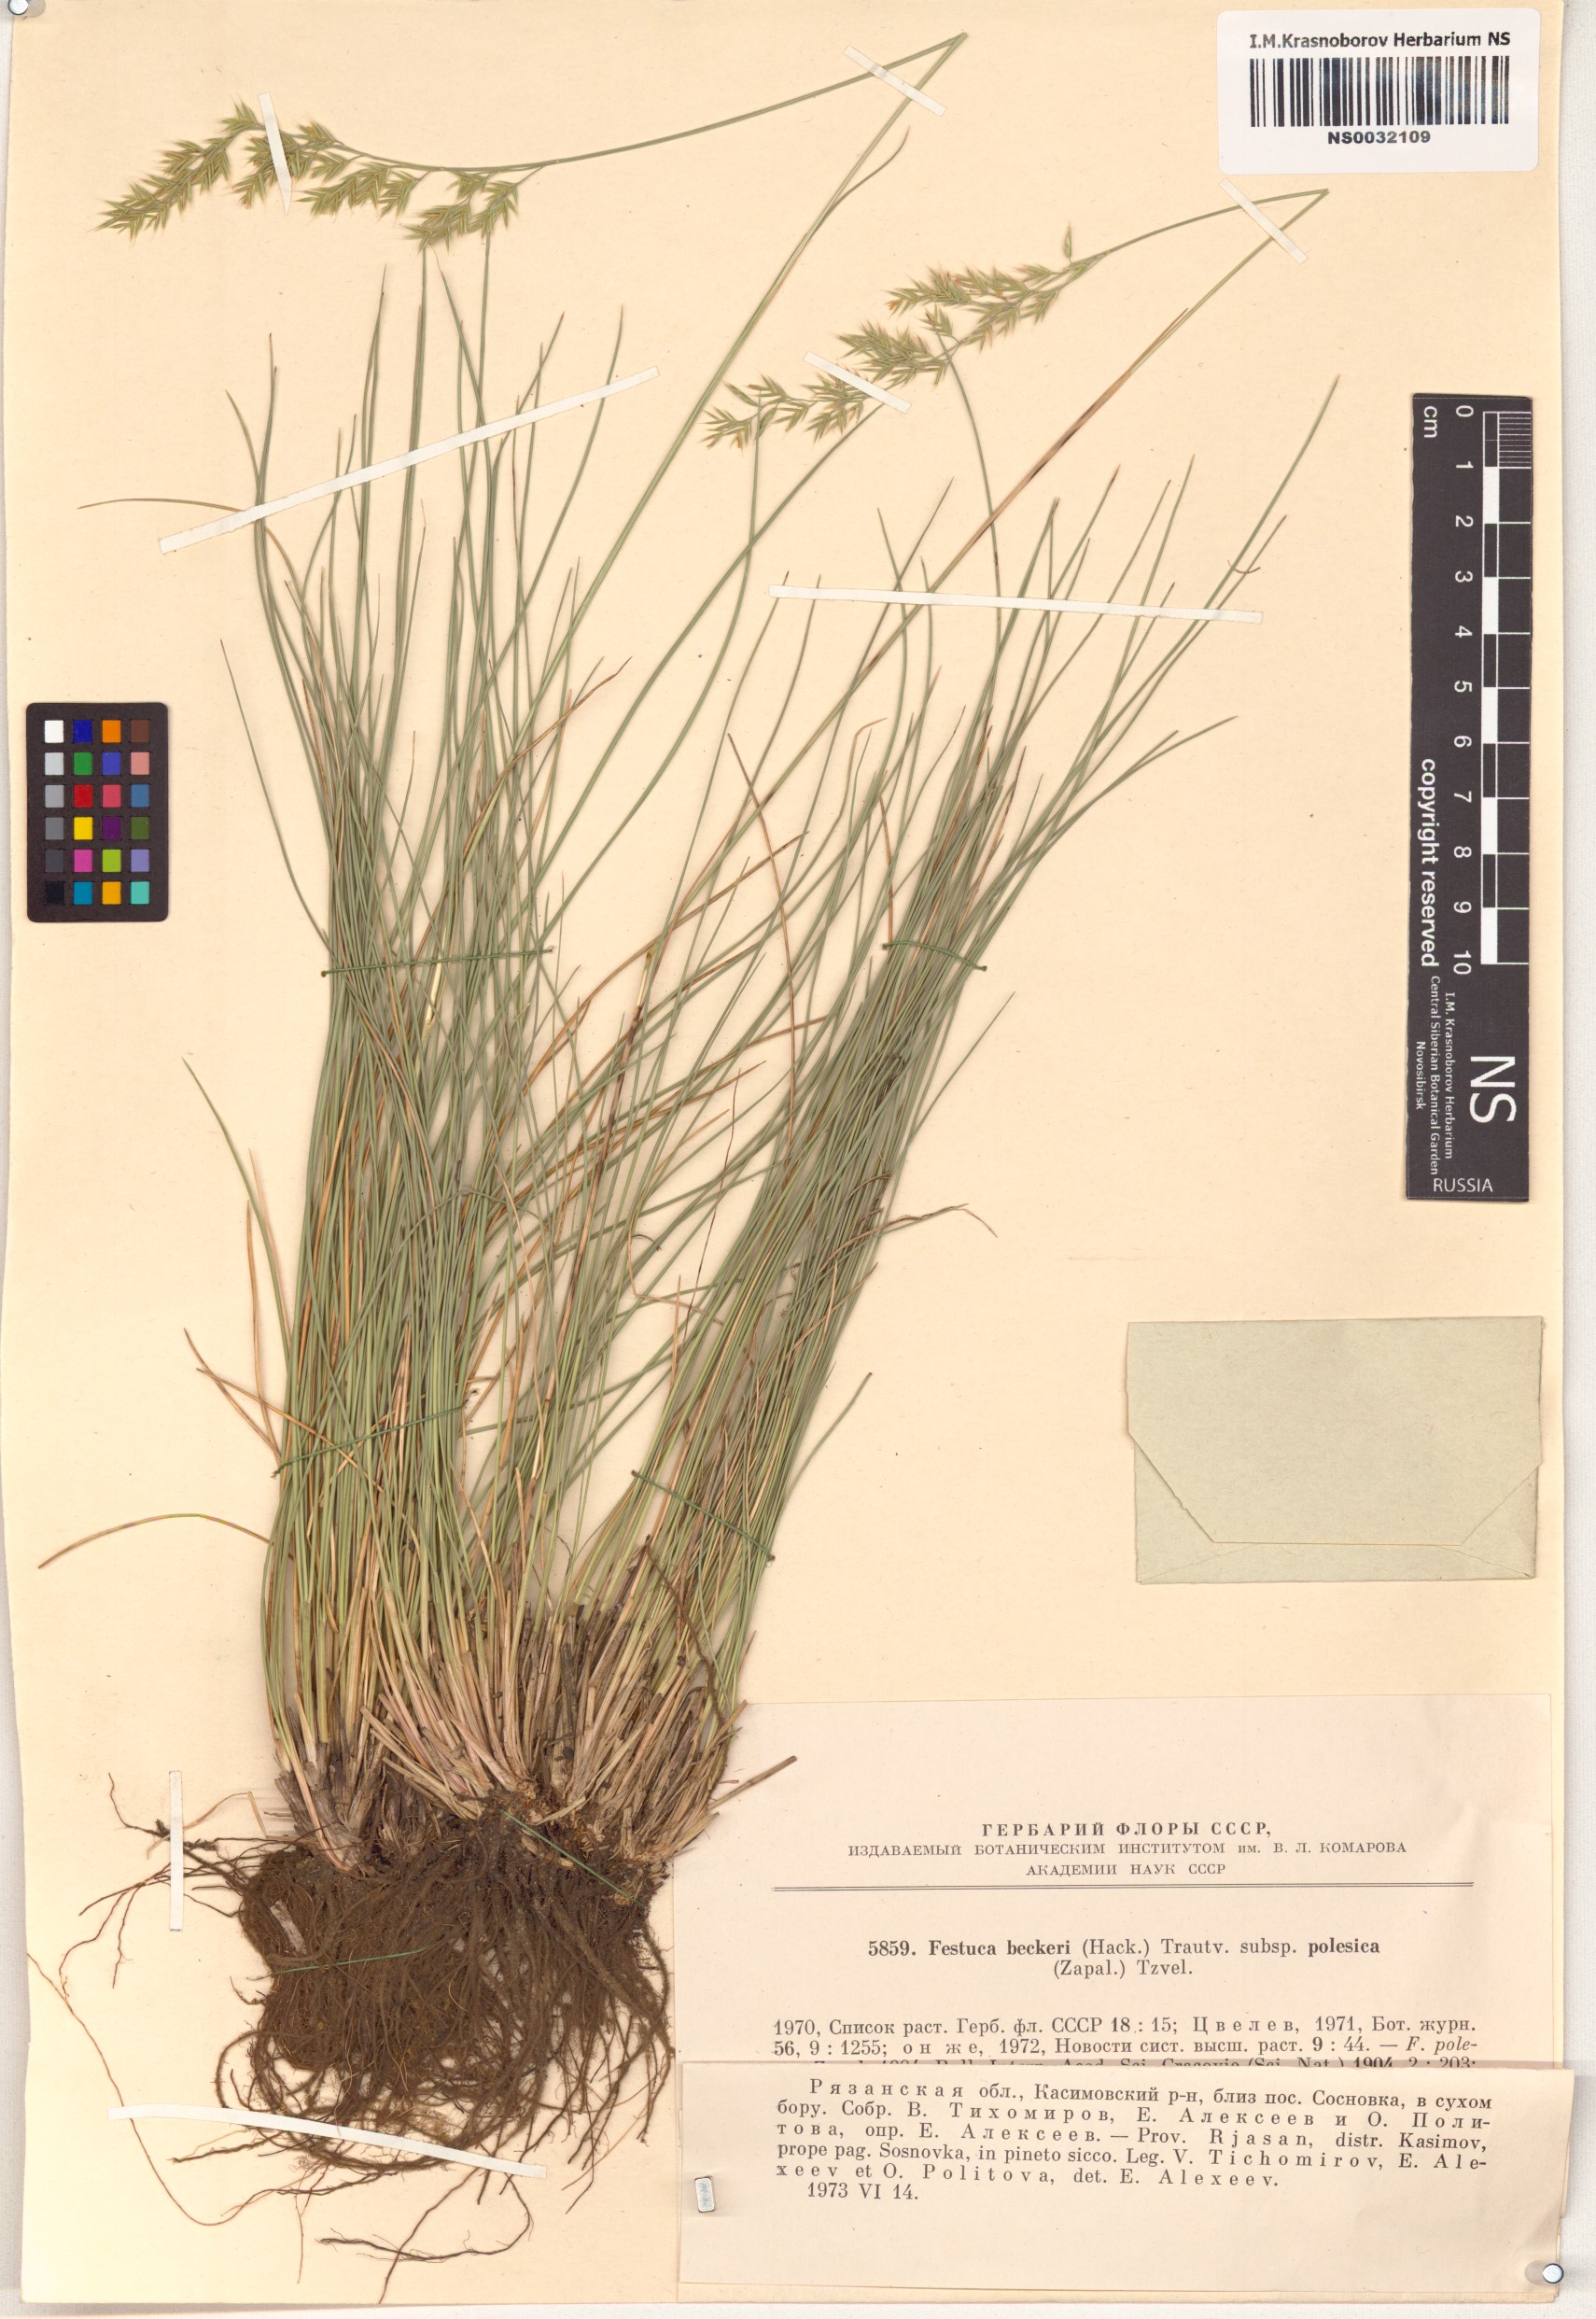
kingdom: Plantae
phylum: Tracheophyta
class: Liliopsida
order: Poales
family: Poaceae
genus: Festuca
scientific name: Festuca beckeri
